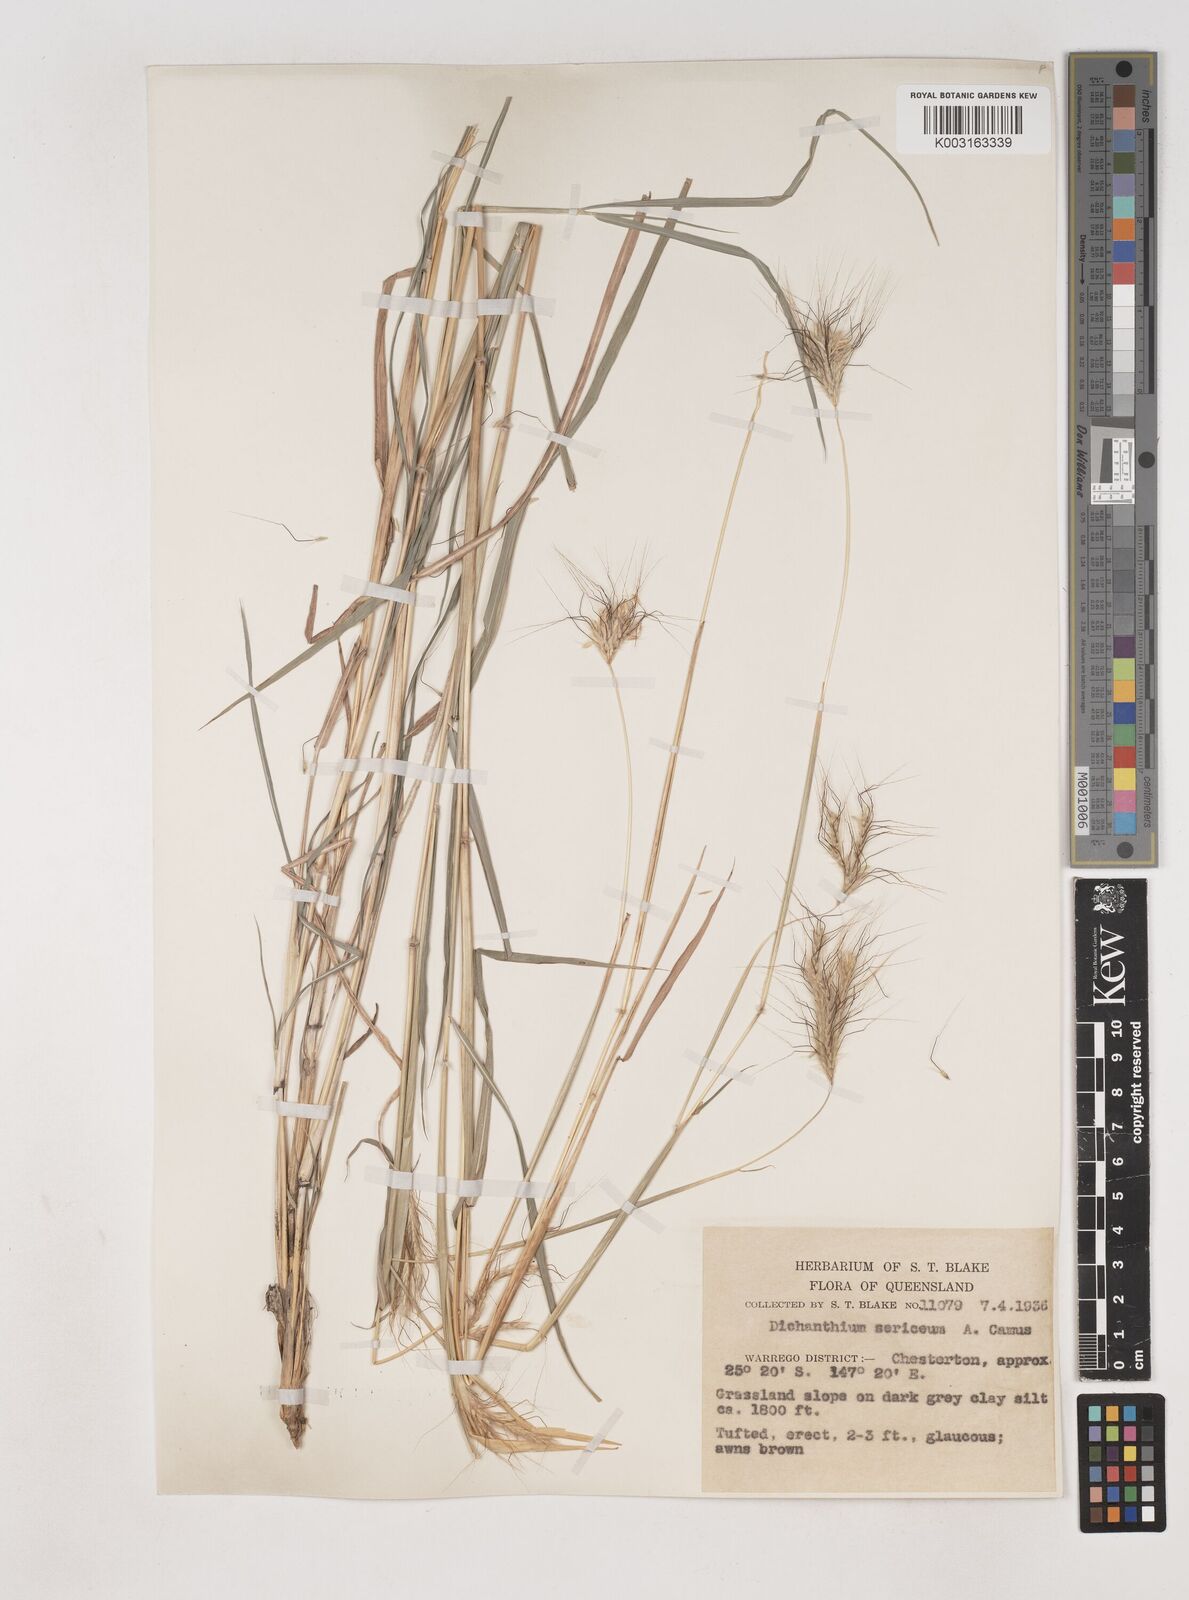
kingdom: Plantae
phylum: Tracheophyta
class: Liliopsida
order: Poales
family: Poaceae
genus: Dichanthium
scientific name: Dichanthium sericeum
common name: Silky bluestem
